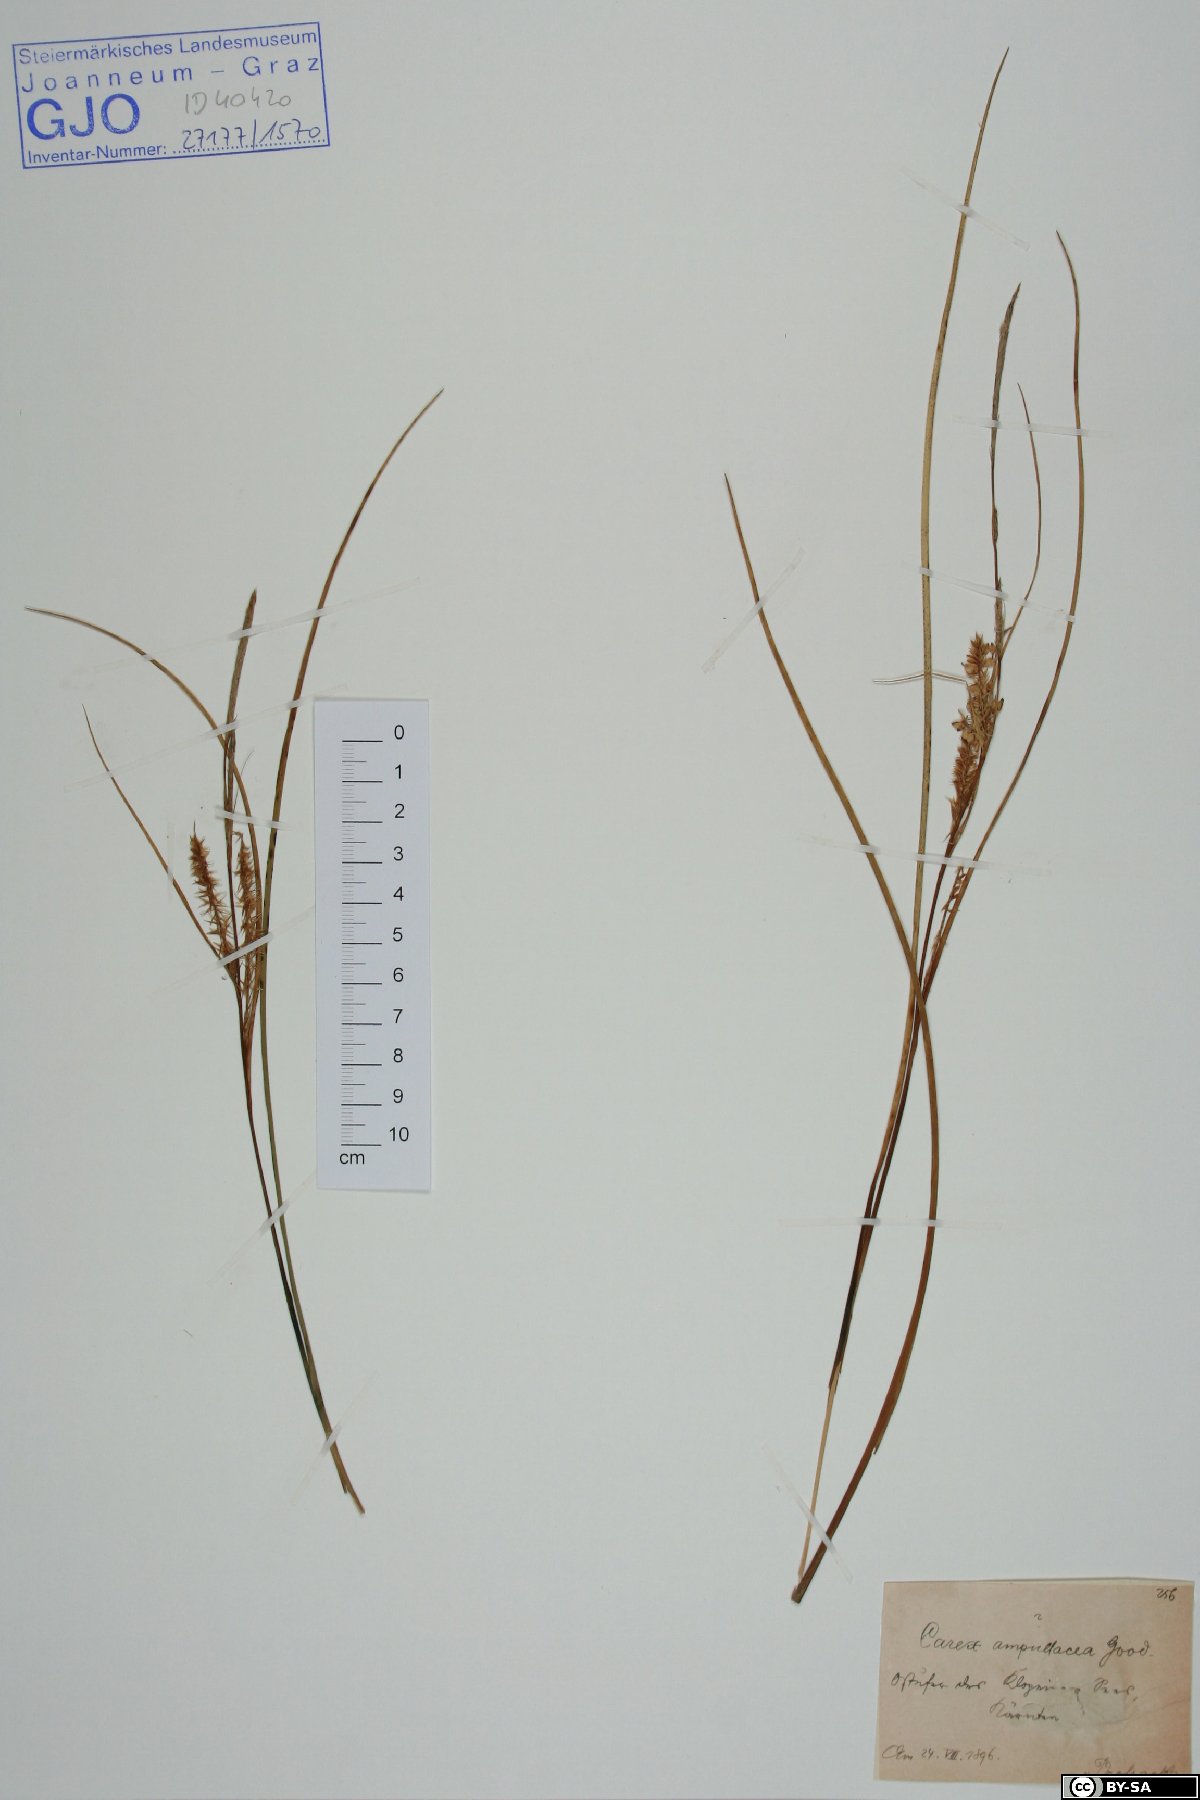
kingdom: Plantae
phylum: Tracheophyta
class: Liliopsida
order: Poales
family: Cyperaceae
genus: Carex
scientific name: Carex rostrata
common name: Bottle sedge
